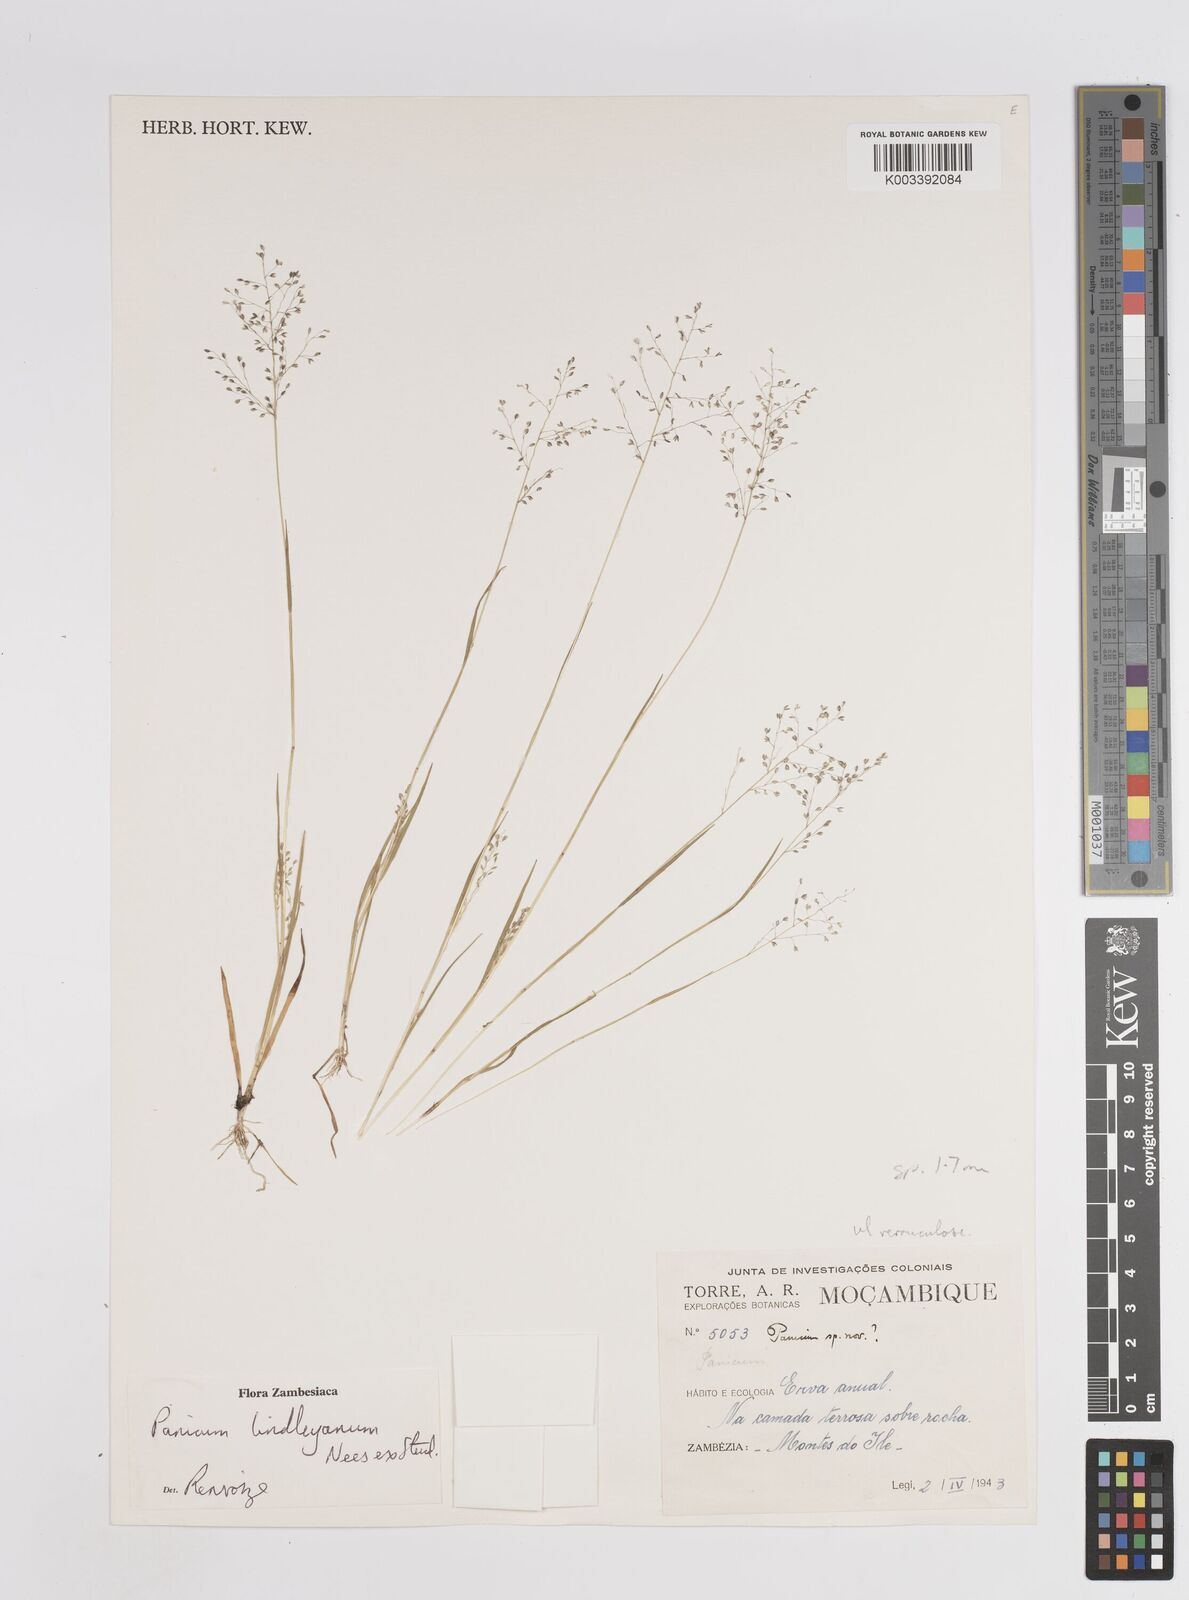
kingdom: Plantae
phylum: Tracheophyta
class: Liliopsida
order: Poales
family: Poaceae
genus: Trichanthecium
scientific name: Trichanthecium tenellum
